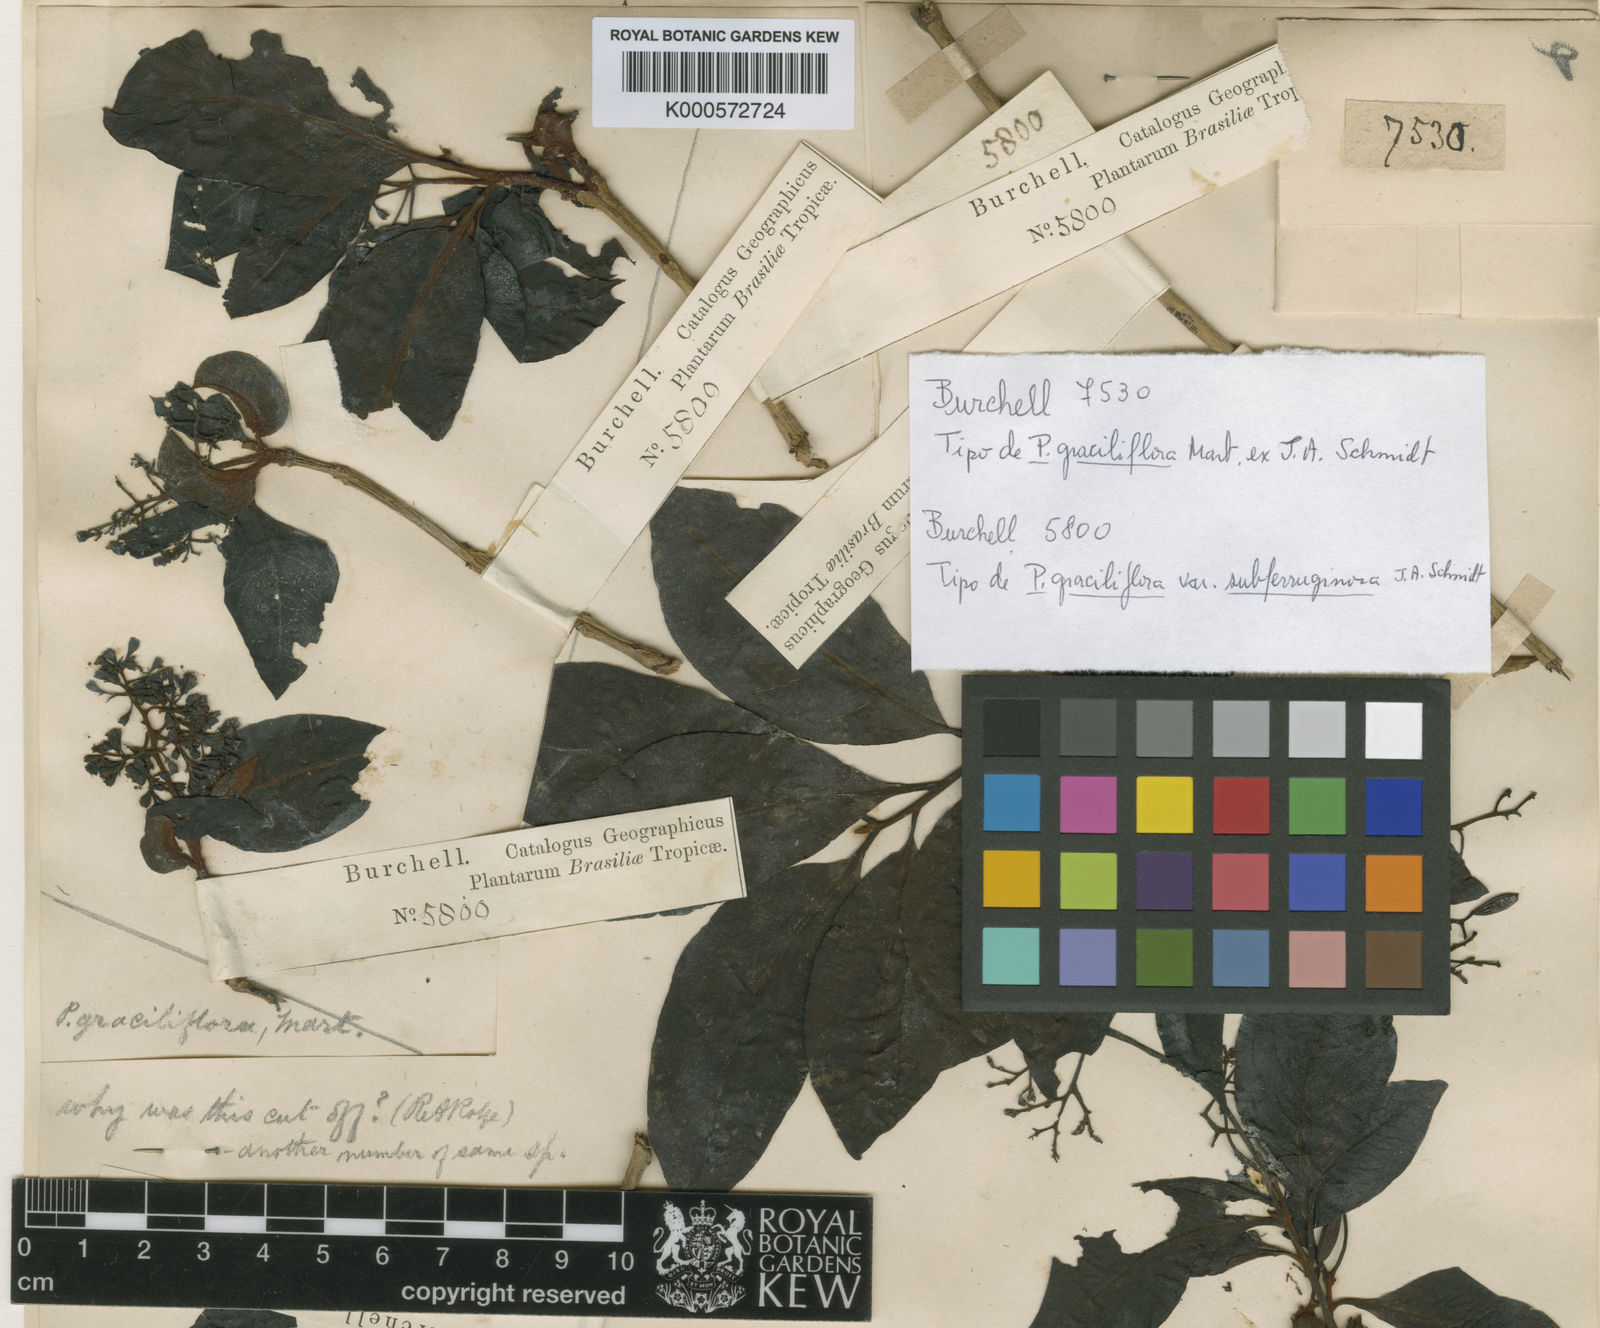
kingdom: Plantae
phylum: Tracheophyta
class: Magnoliopsida
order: Caryophyllales
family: Nyctaginaceae
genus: Guapira
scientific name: Guapira graciliflora
